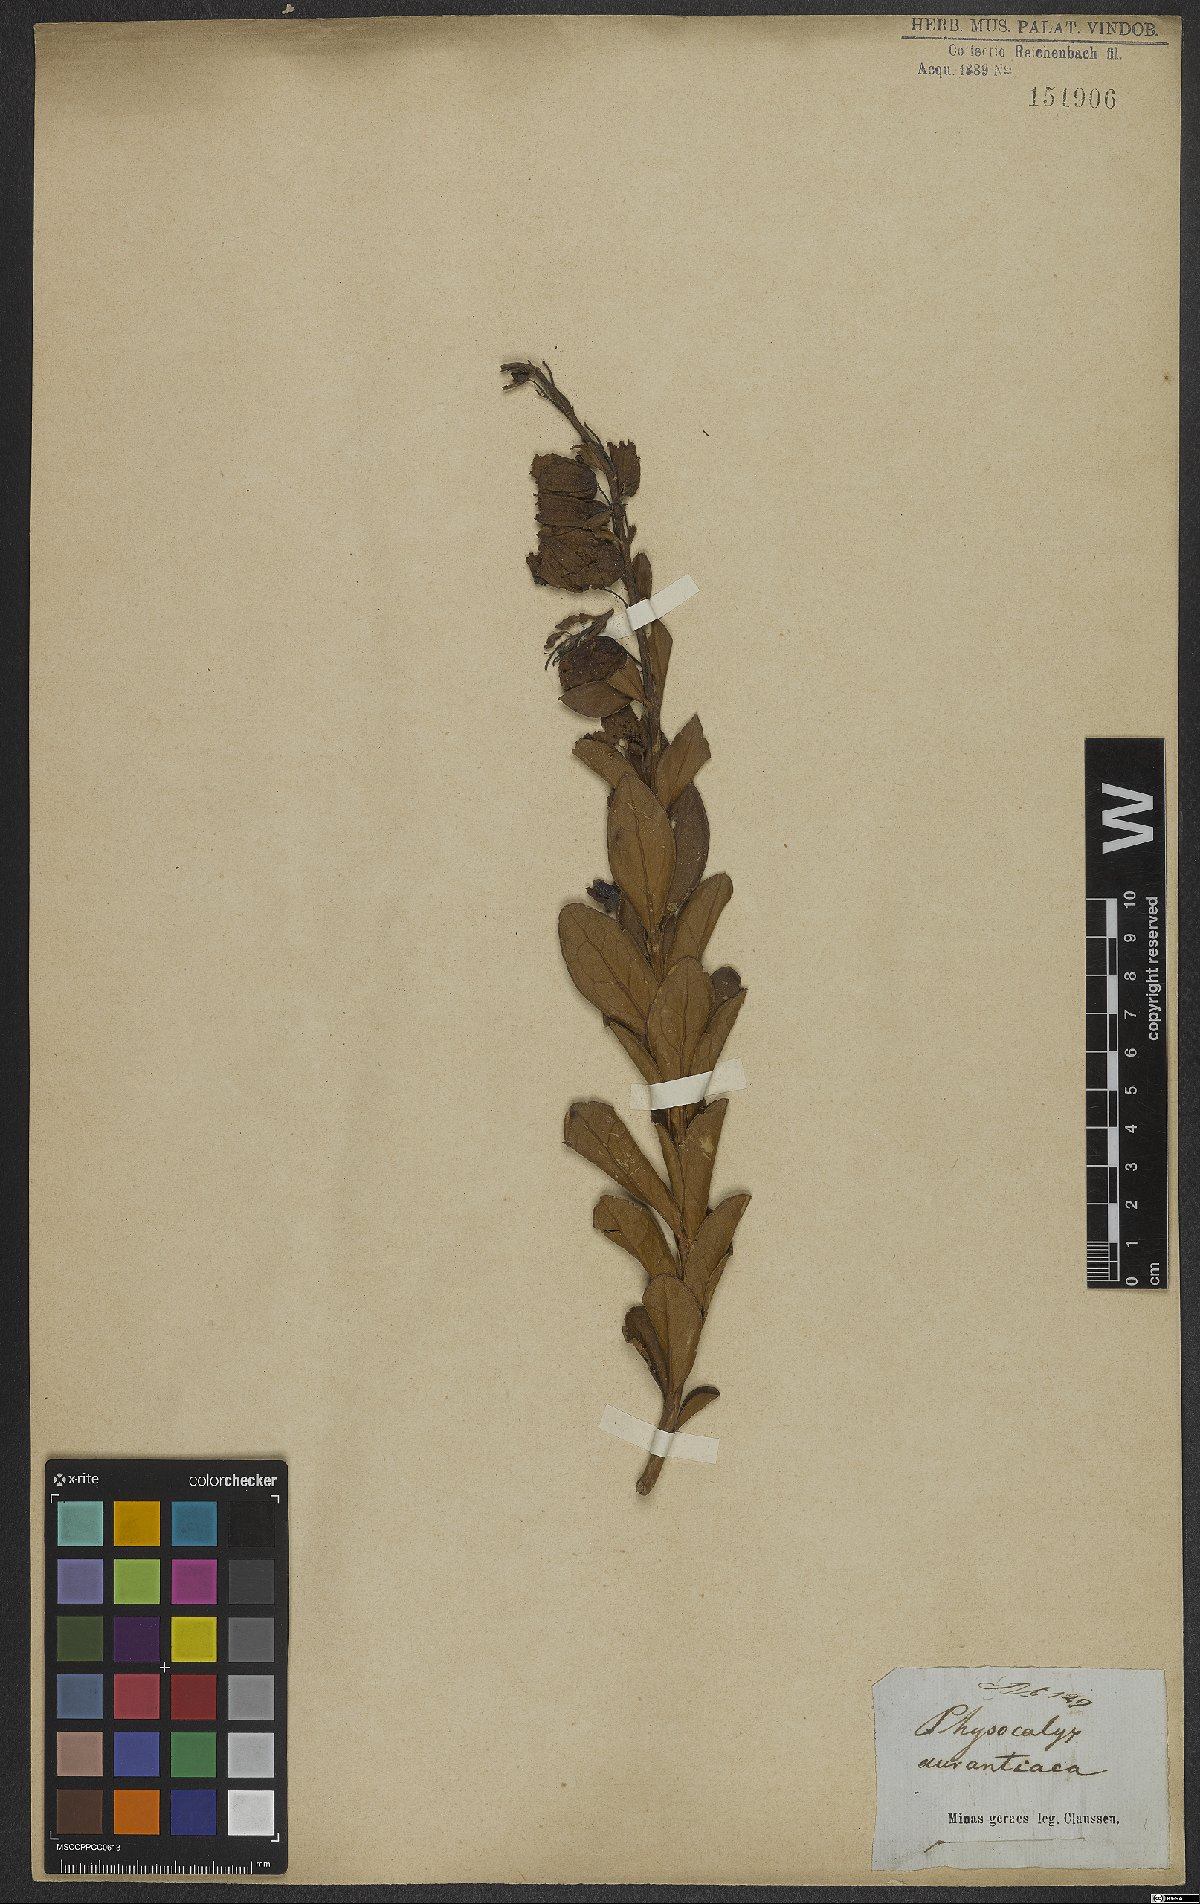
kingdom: Plantae
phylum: Tracheophyta
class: Magnoliopsida
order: Lamiales
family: Orobanchaceae
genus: Physocalyx
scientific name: Physocalyx aurantiacus
